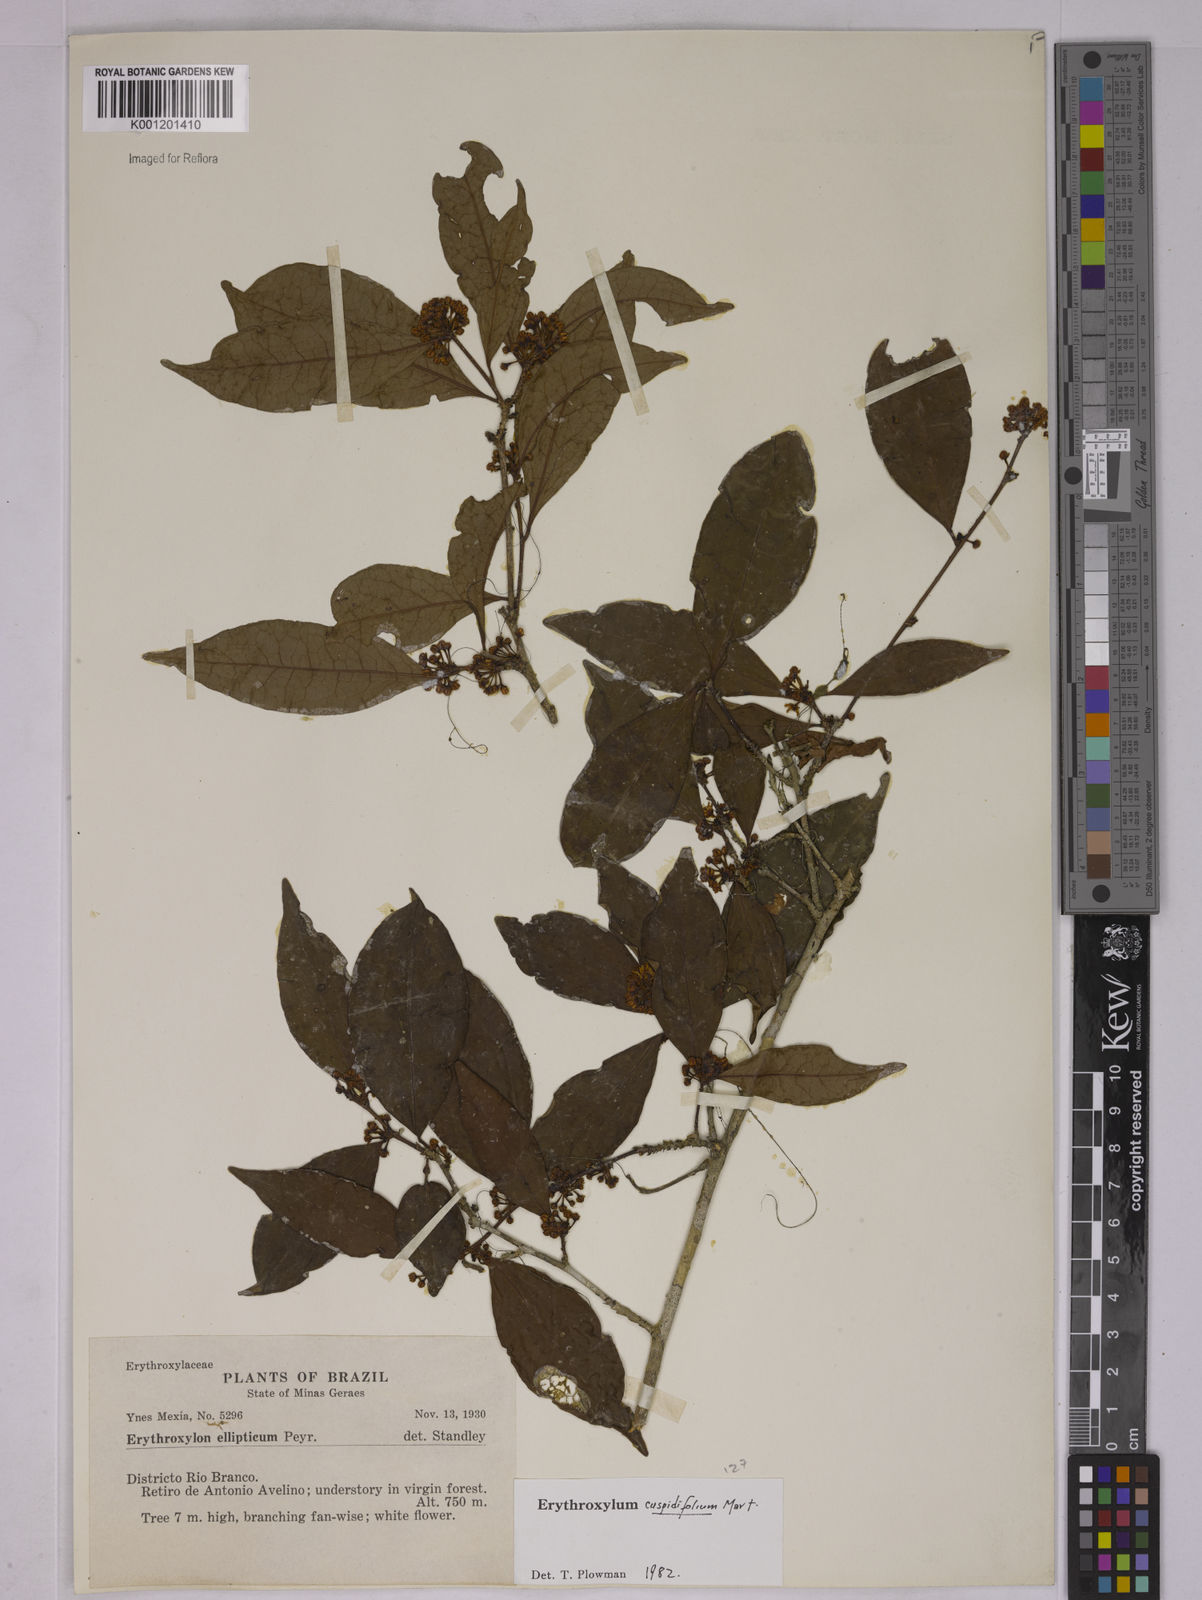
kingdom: Plantae
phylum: Tracheophyta
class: Magnoliopsida
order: Malpighiales
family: Erythroxylaceae
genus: Erythroxylum
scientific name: Erythroxylum cuspidifolium
